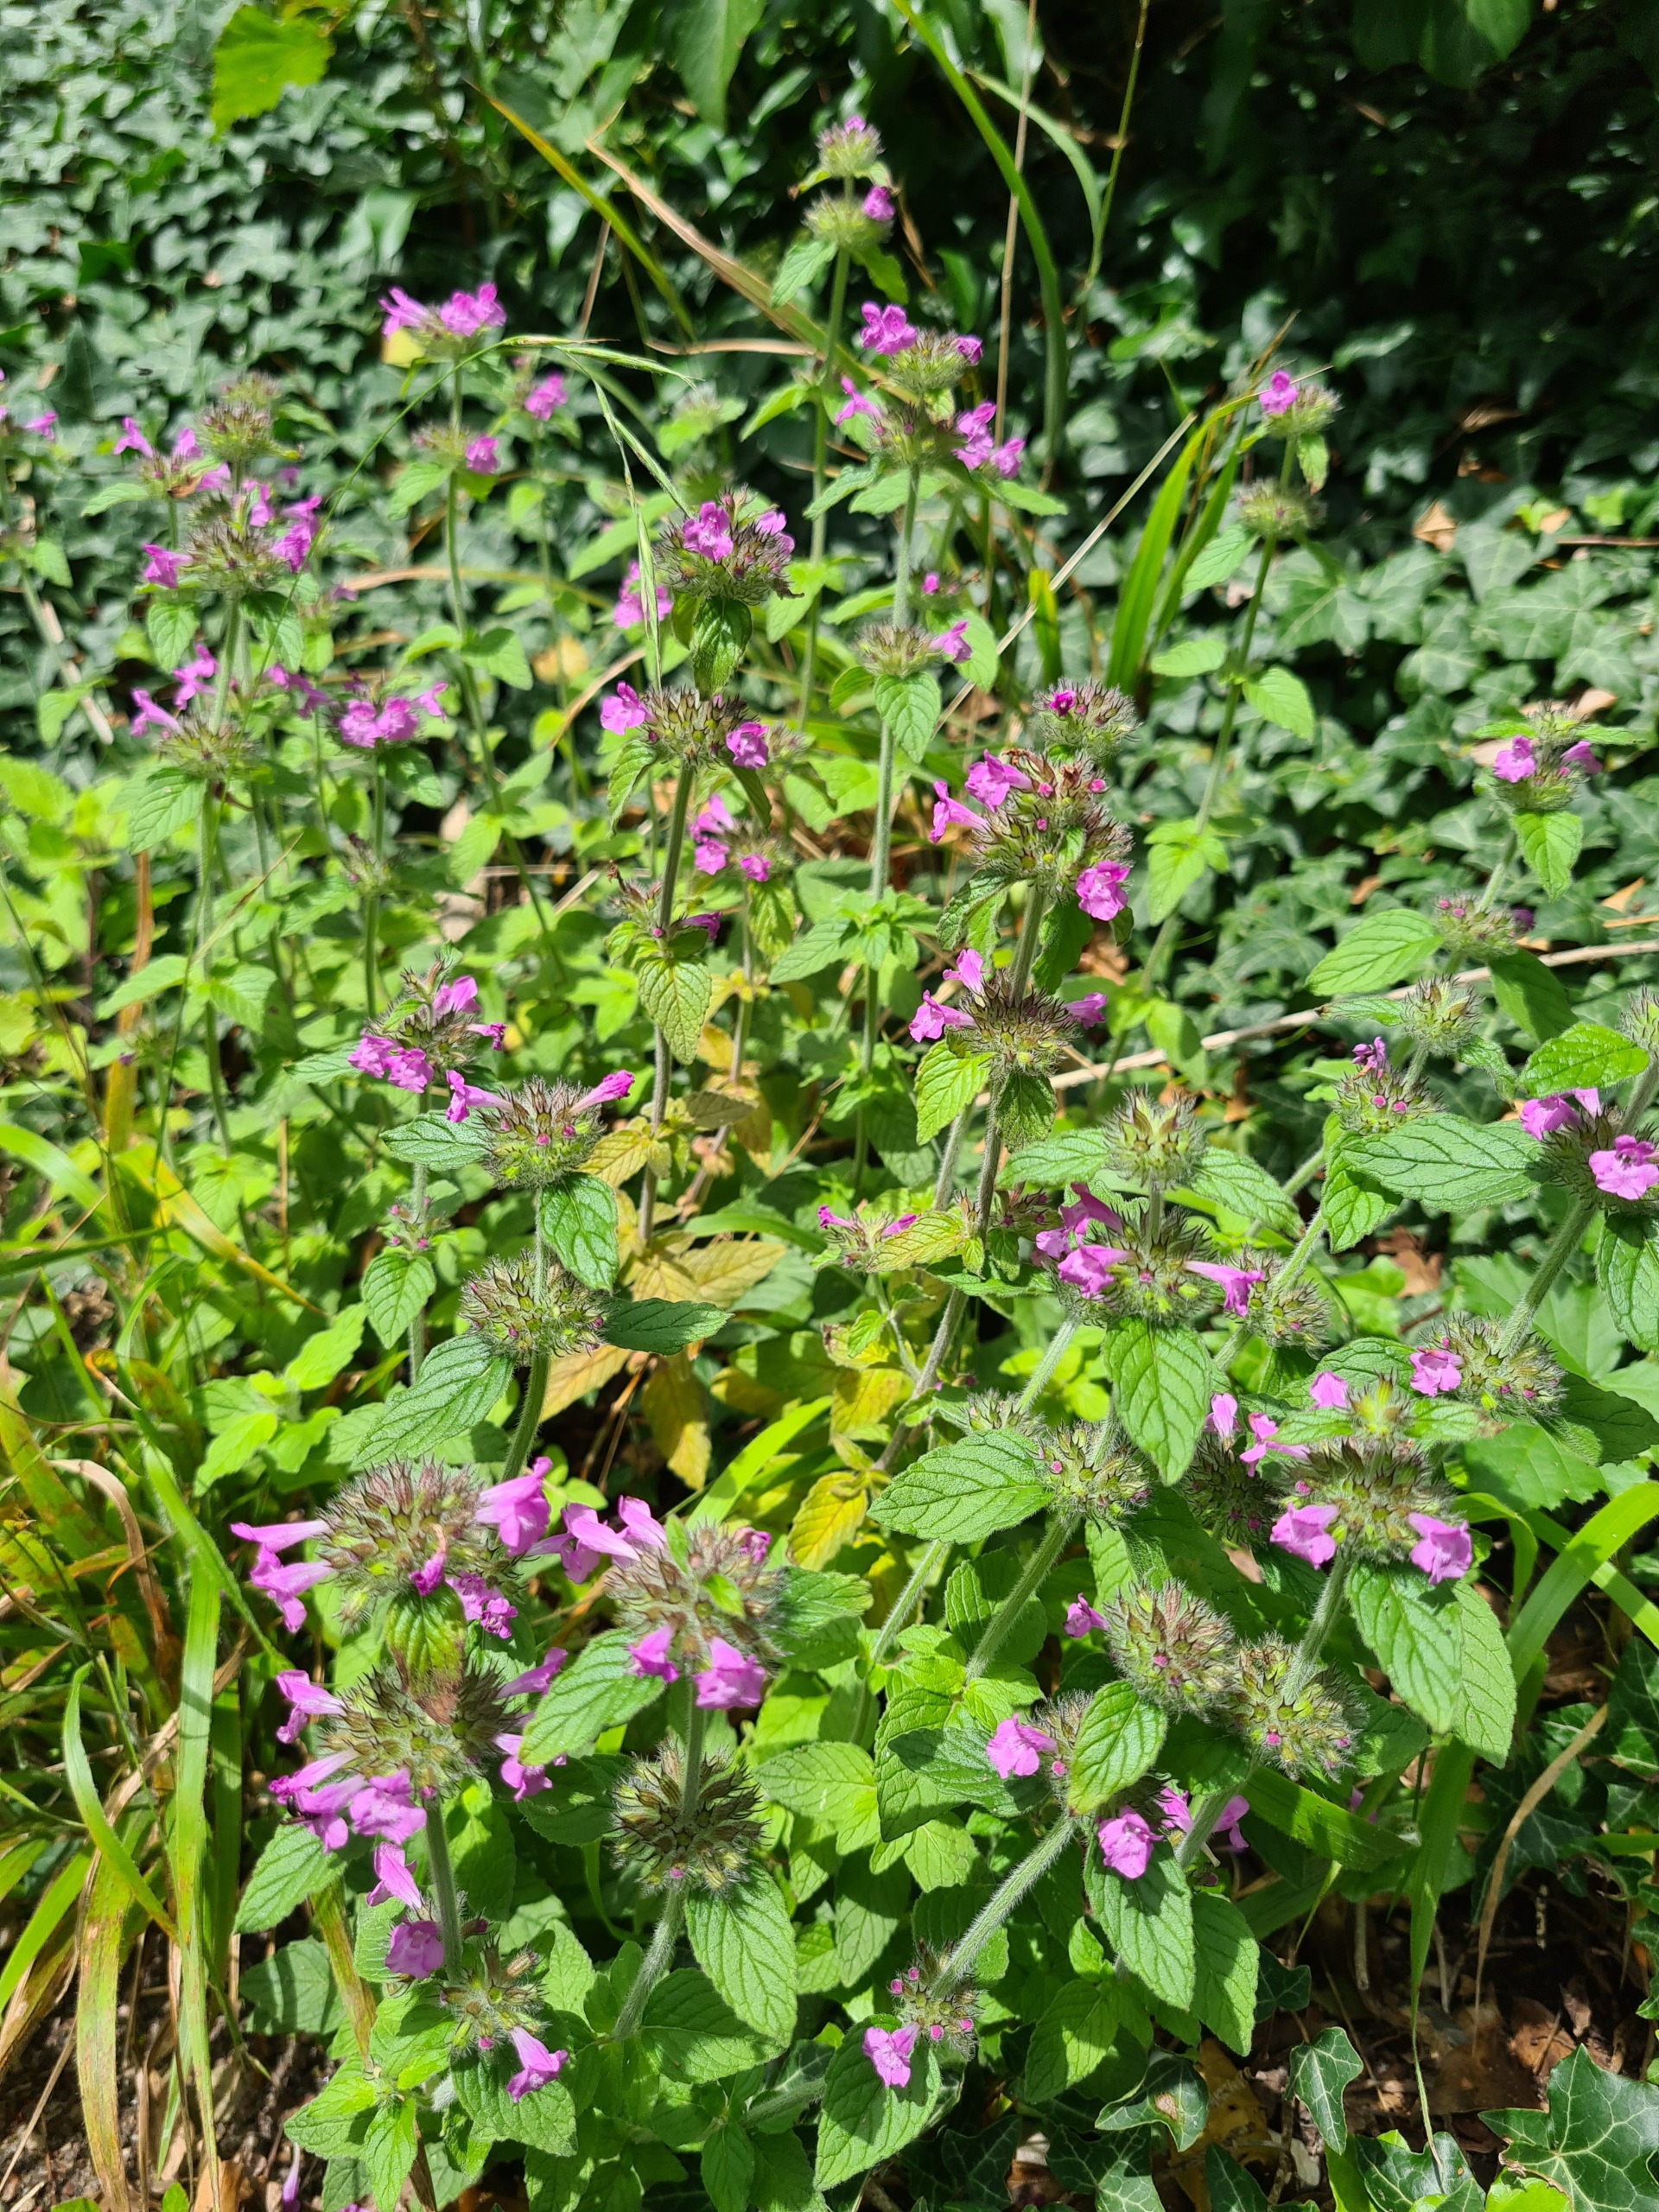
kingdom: Plantae
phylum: Tracheophyta
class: Magnoliopsida
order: Lamiales
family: Lamiaceae
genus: Clinopodium
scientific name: Clinopodium vulgare
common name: Kransbørste
